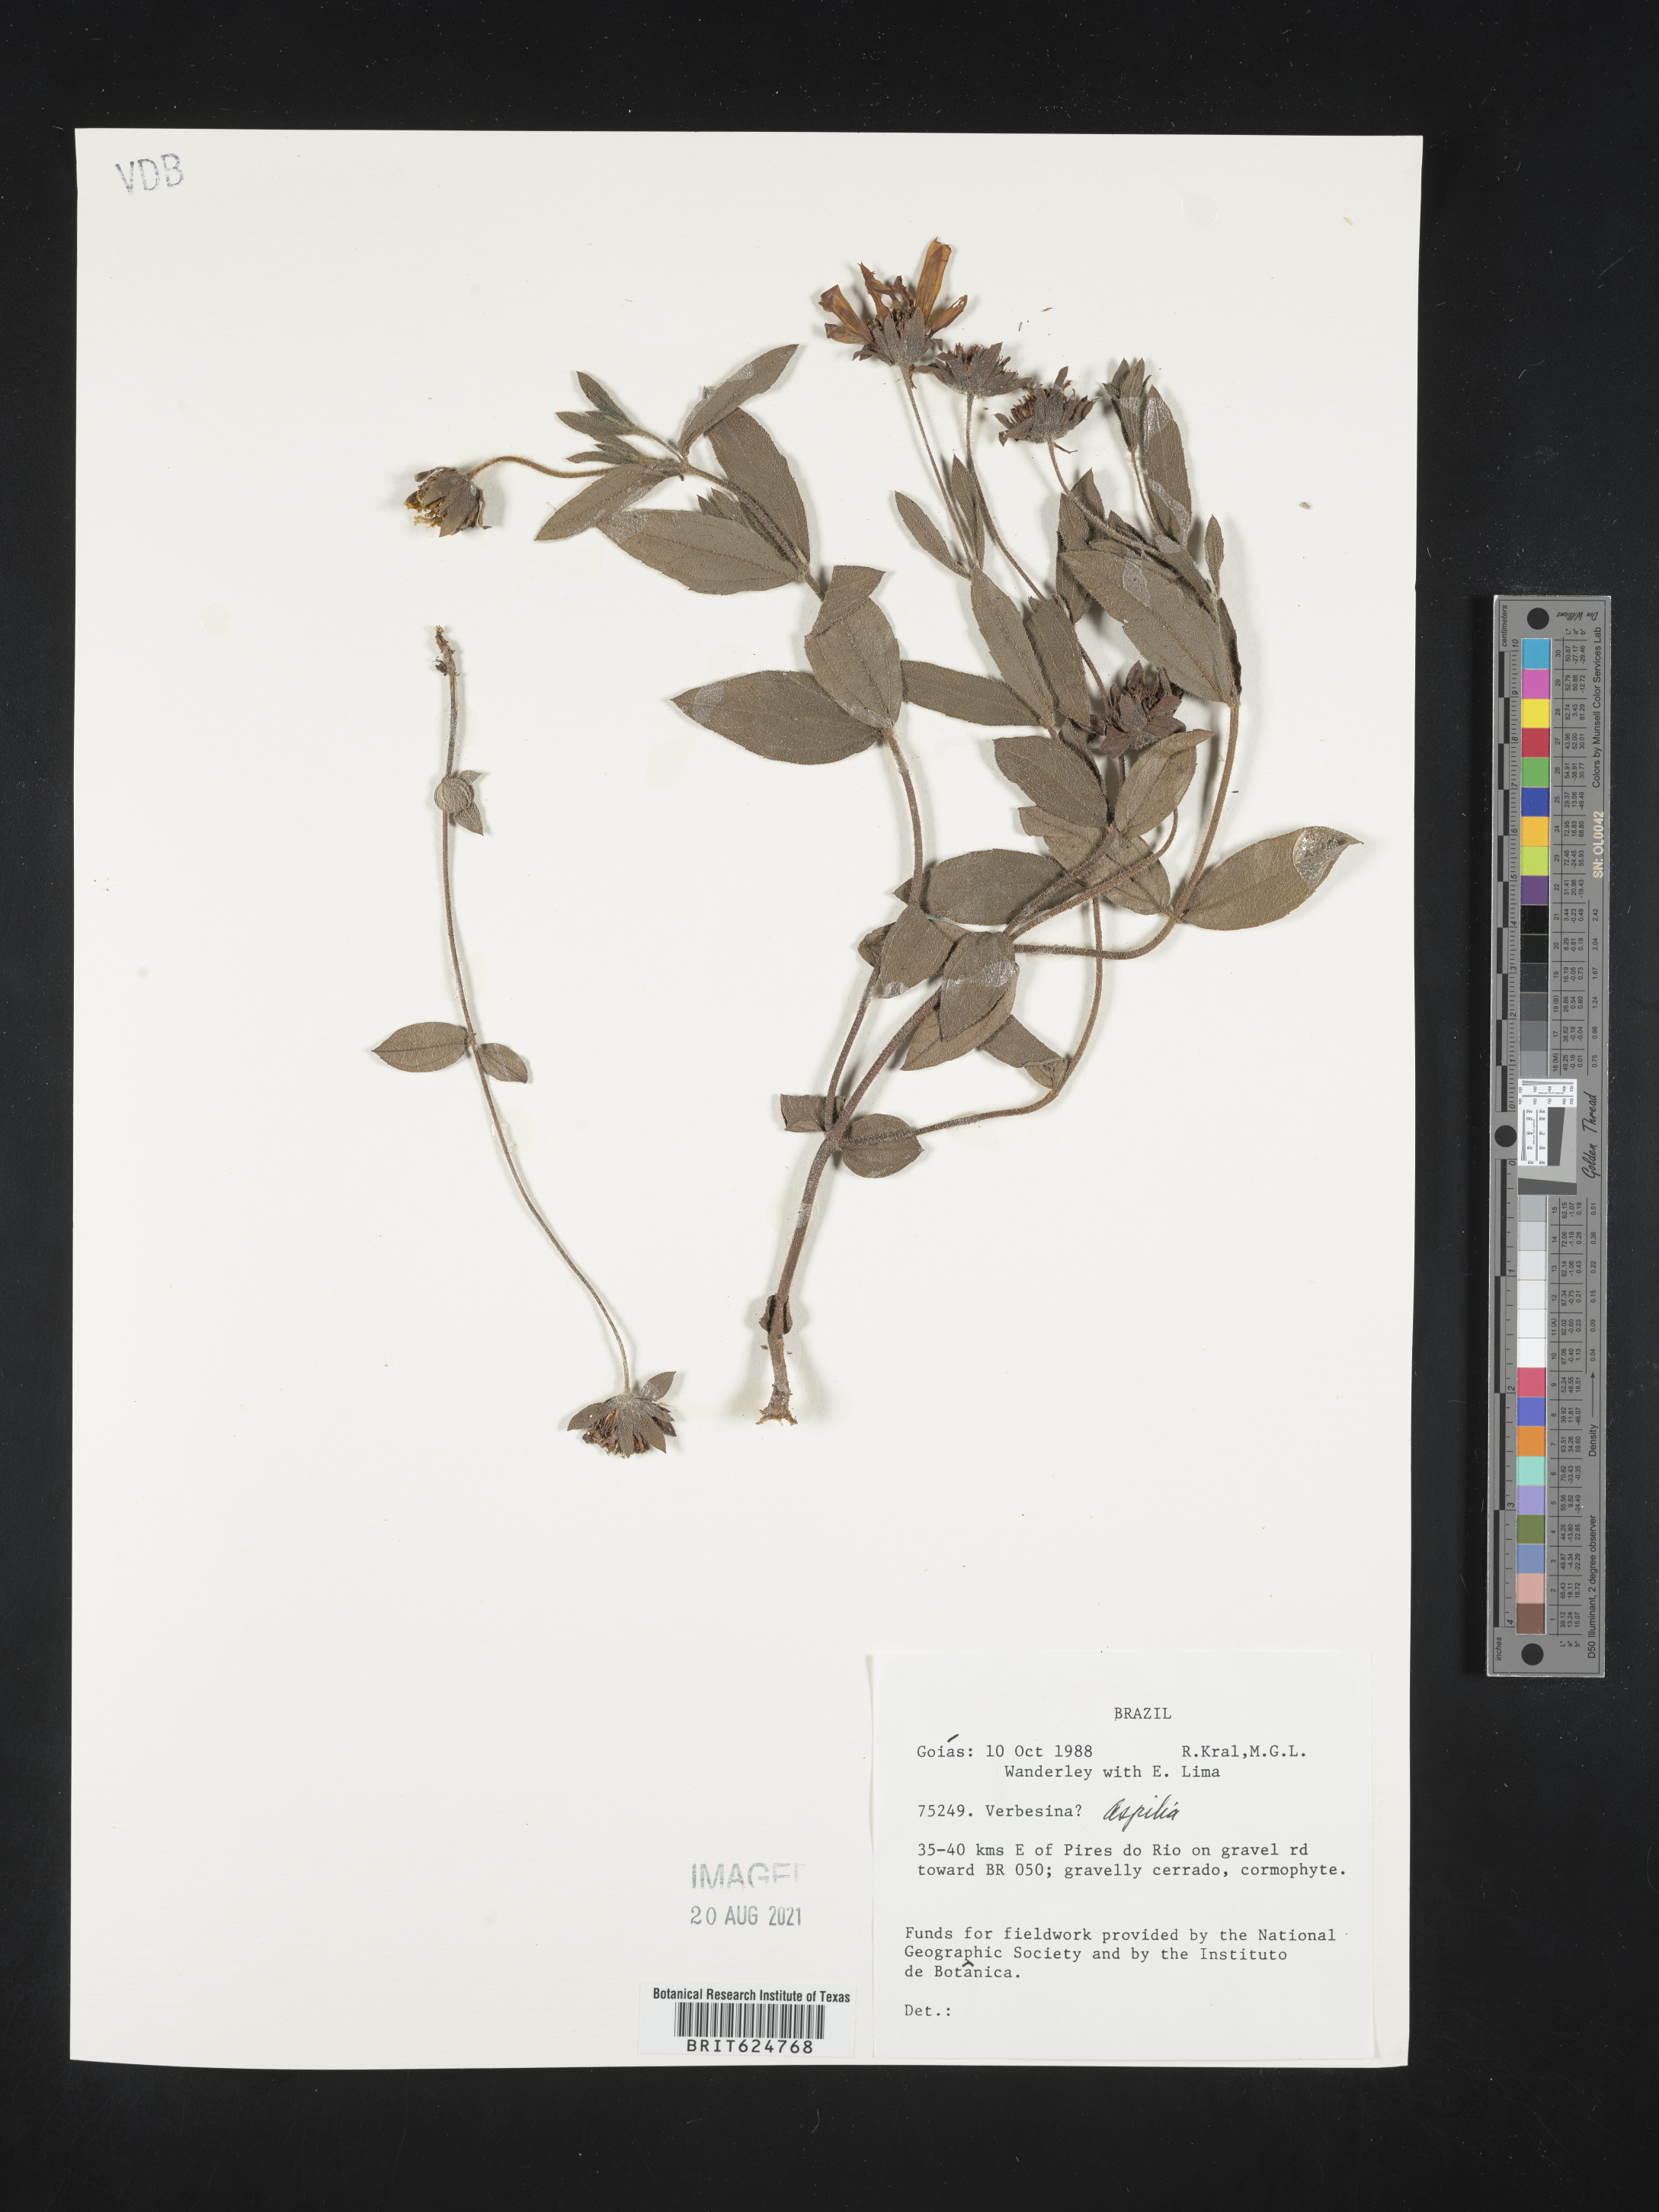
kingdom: Plantae
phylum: Tracheophyta
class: Magnoliopsida
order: Asterales
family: Asteraceae
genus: Aspilia
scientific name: Aspilia
